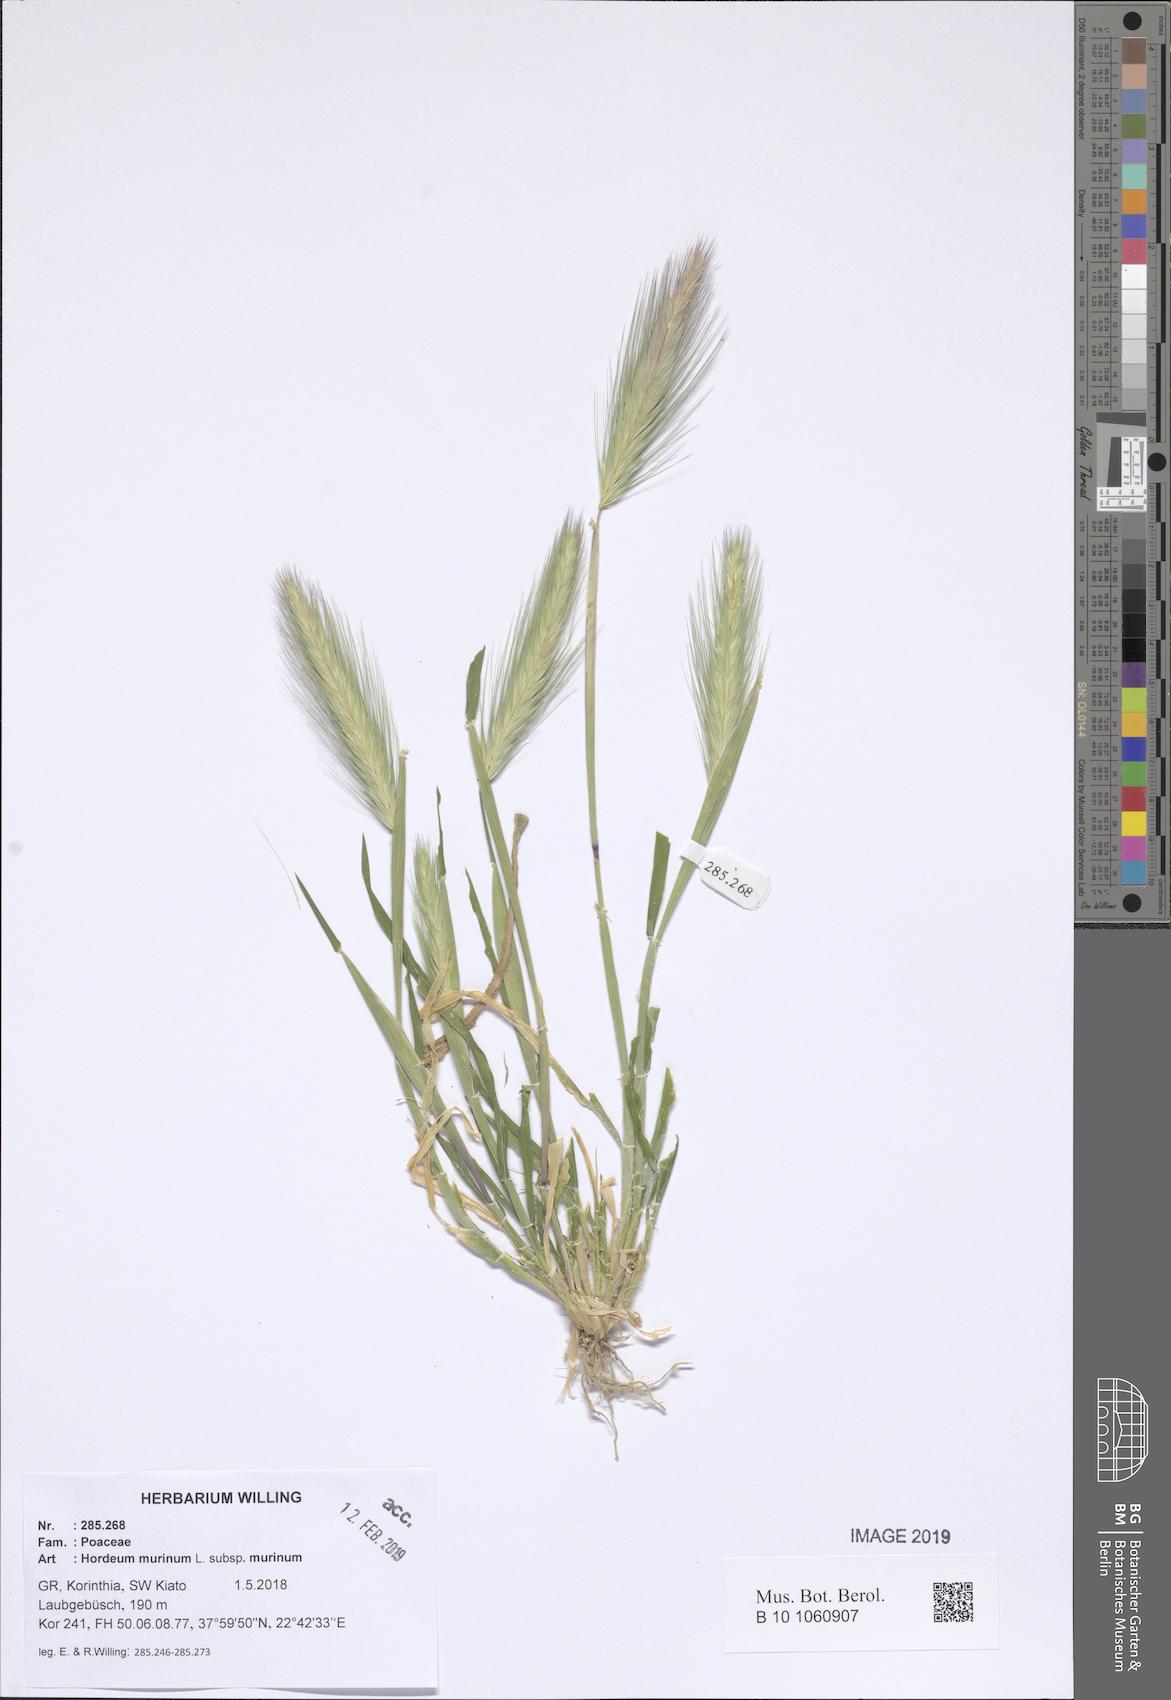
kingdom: Plantae
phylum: Tracheophyta
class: Liliopsida
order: Poales
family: Poaceae
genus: Hordeum
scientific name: Hordeum murinum
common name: Wall barley
